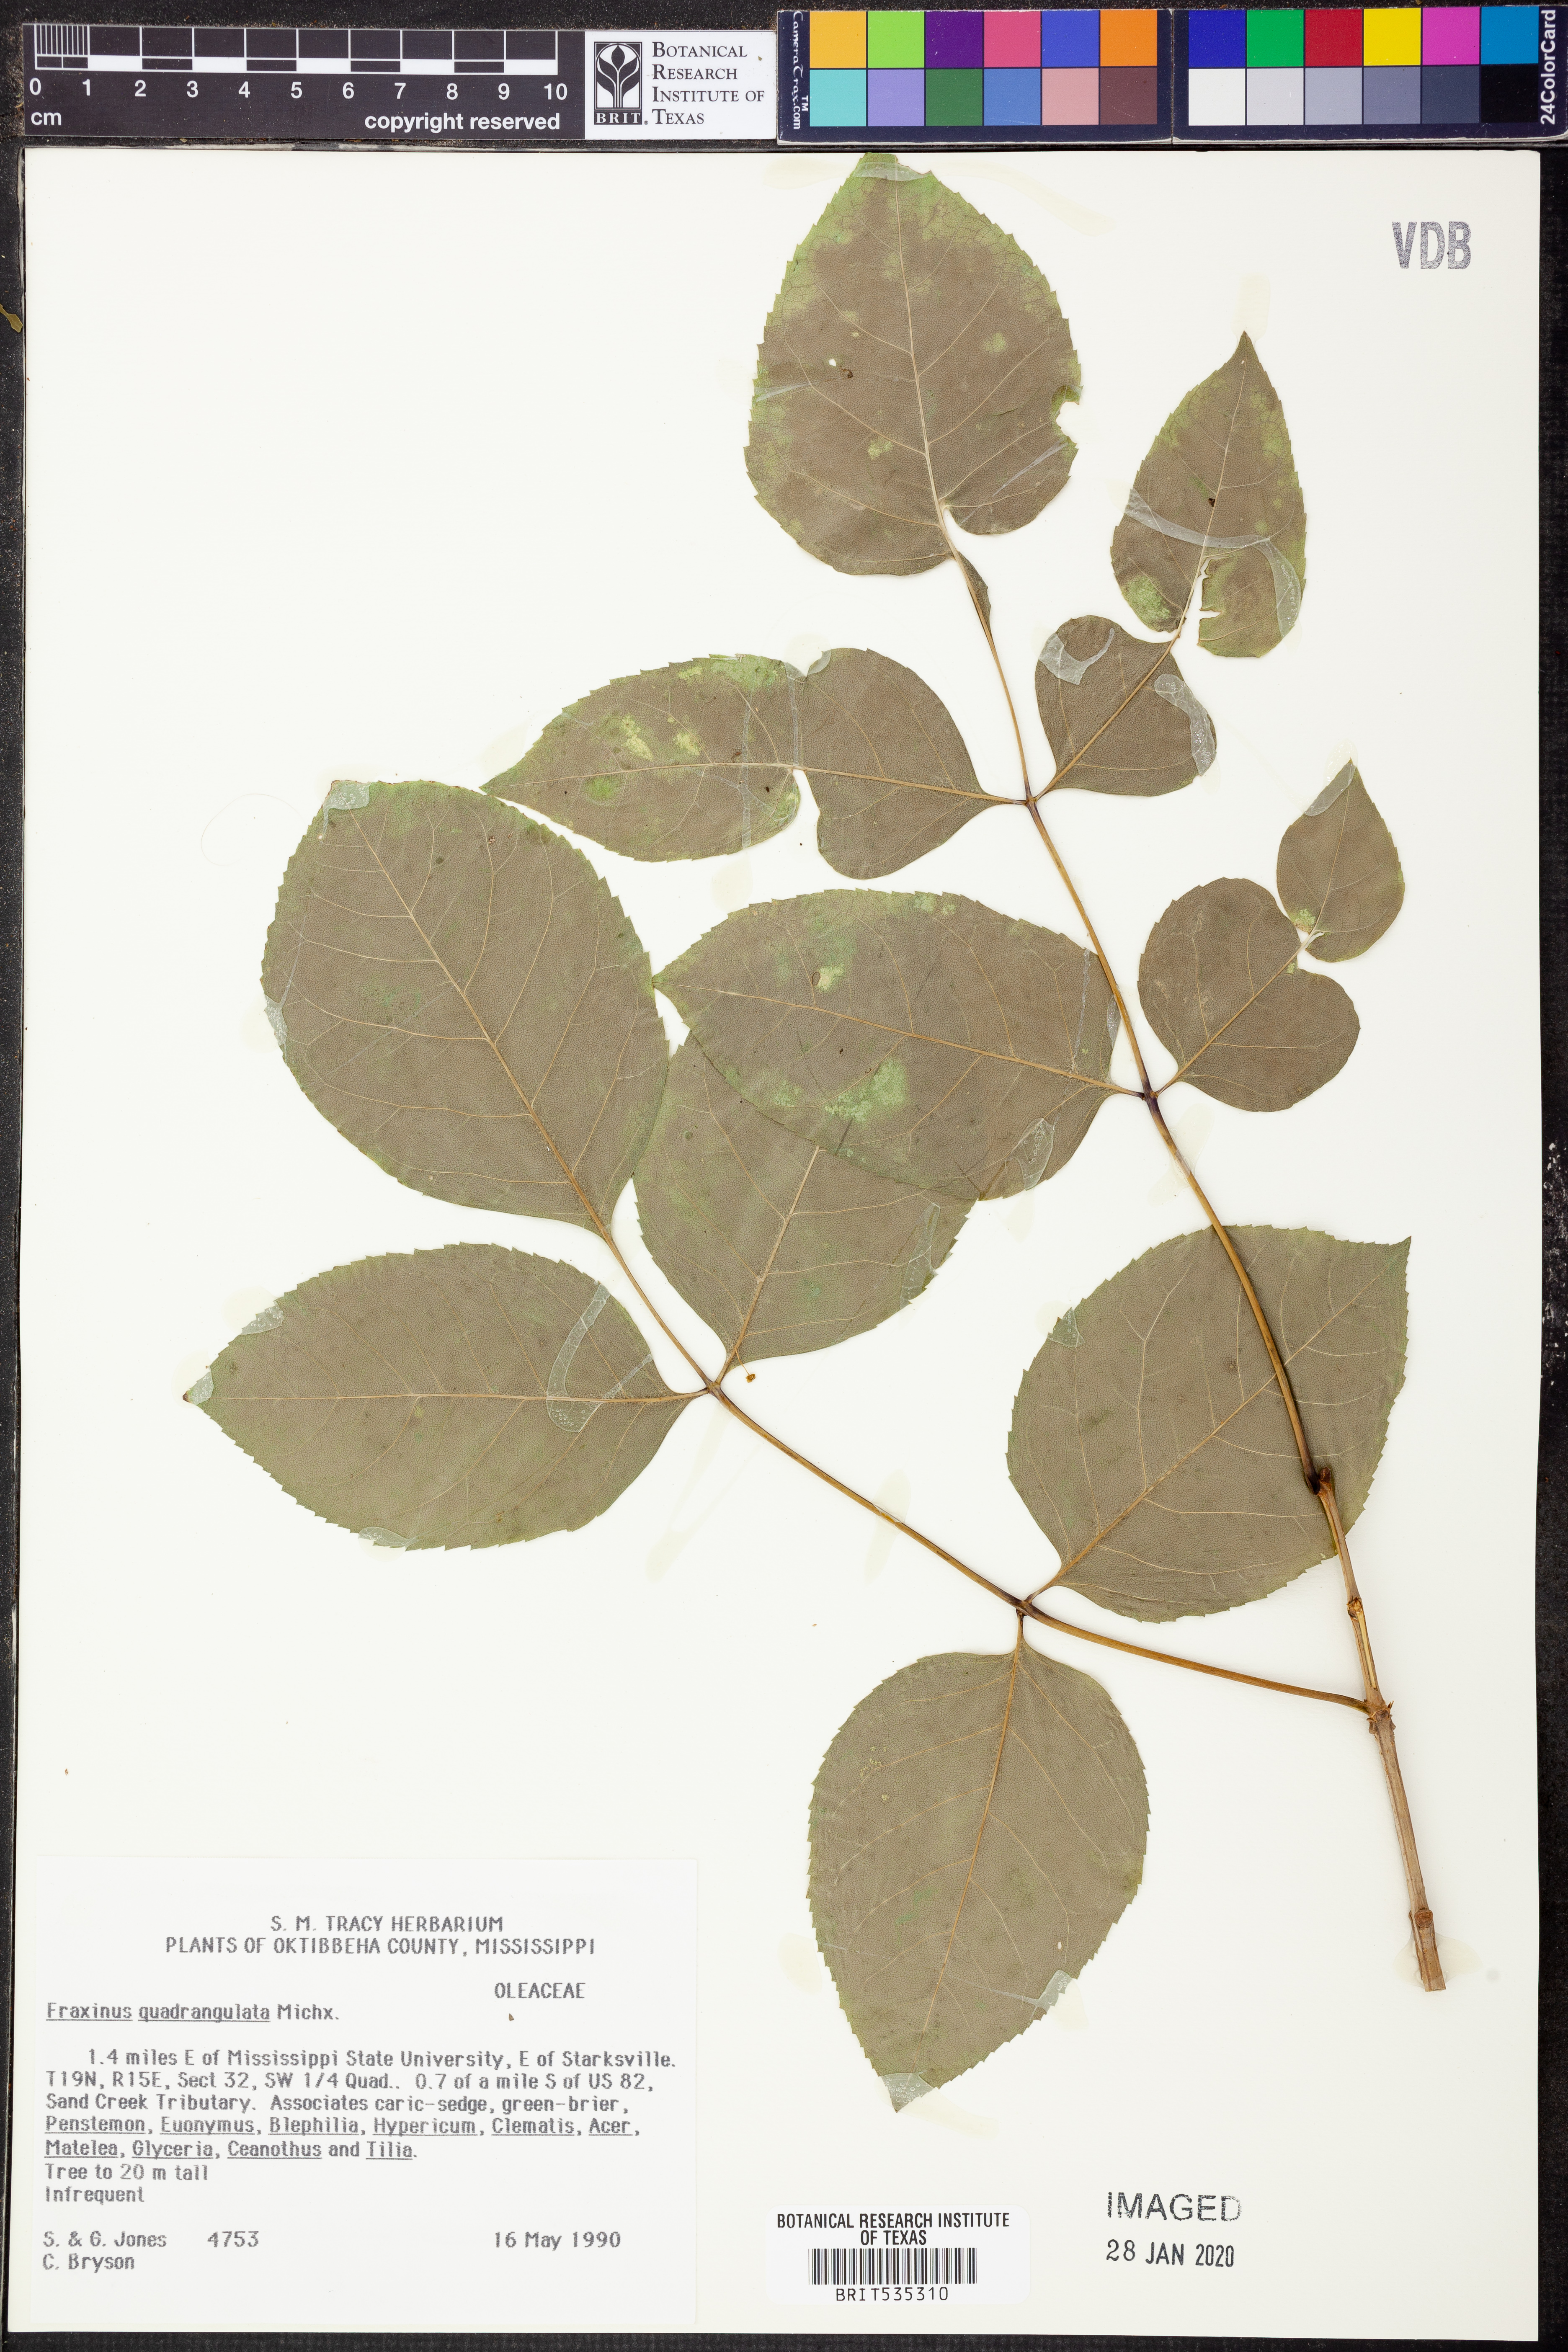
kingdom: Plantae
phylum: Tracheophyta
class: Magnoliopsida
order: Lamiales
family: Oleaceae
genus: Fraxinus
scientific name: Fraxinus quadrangulata
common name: Blue ash
